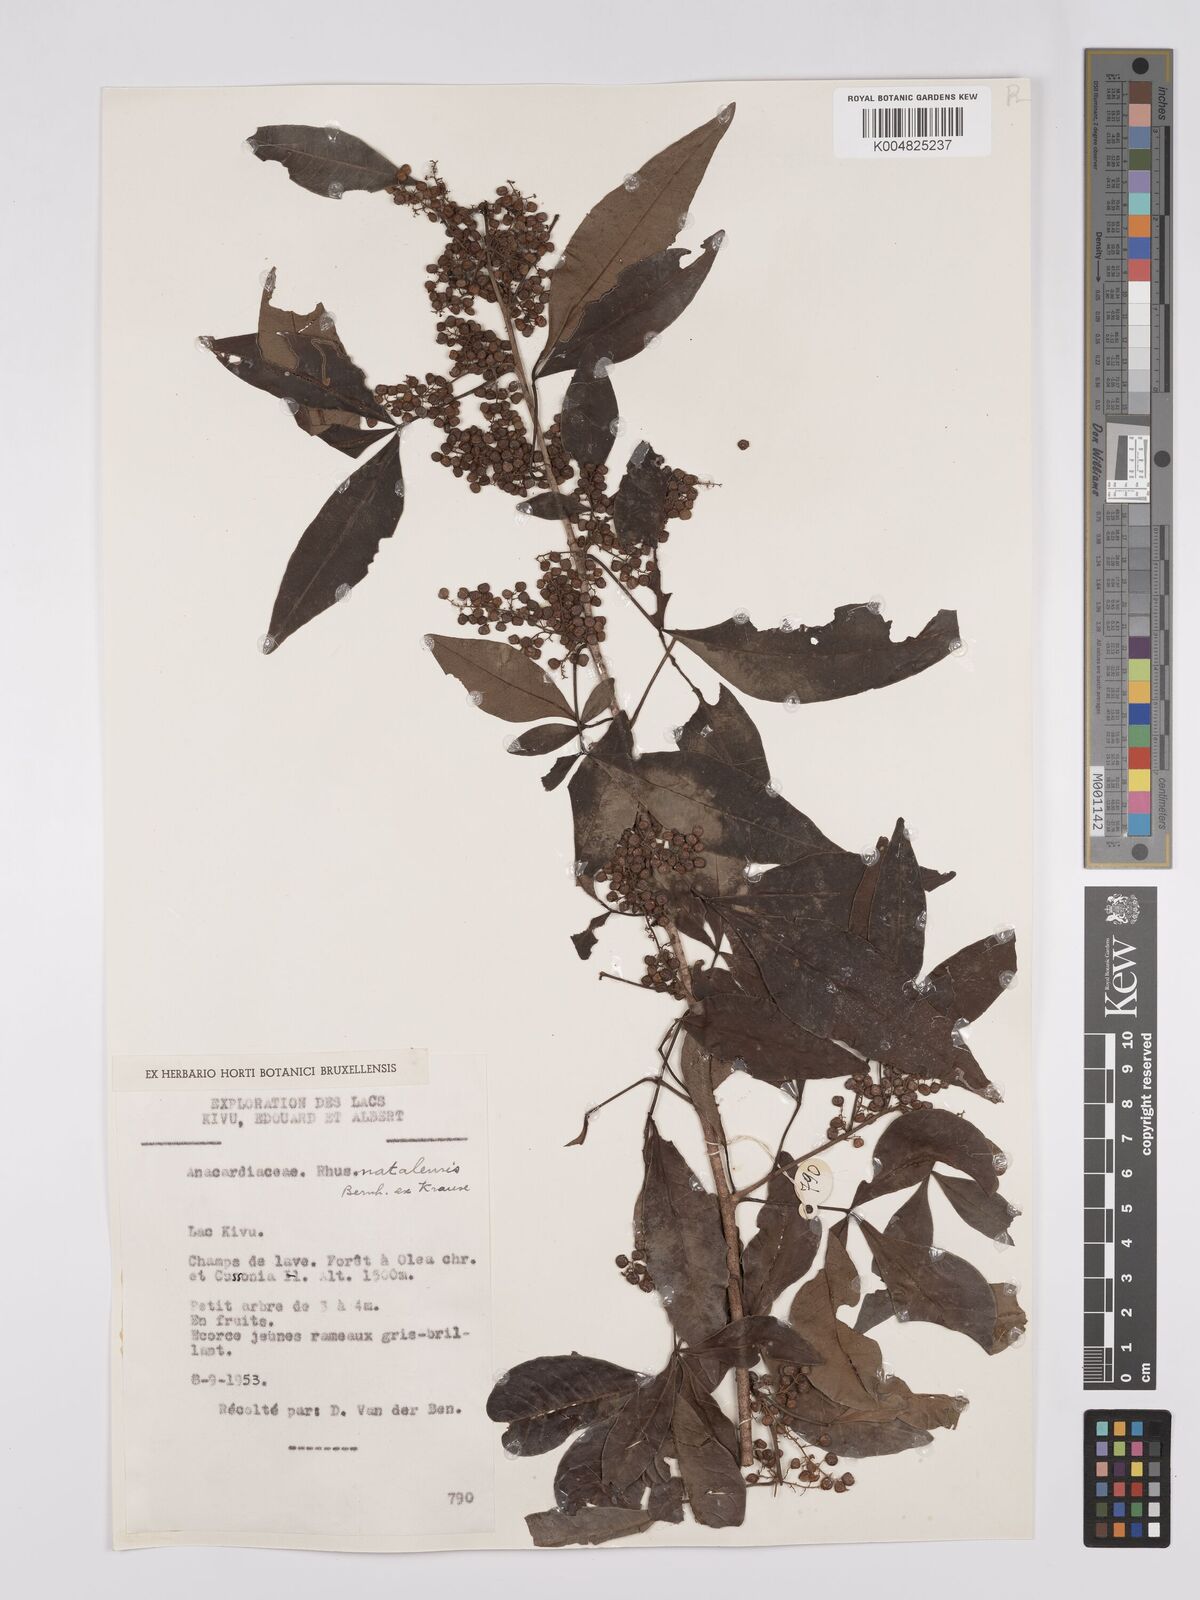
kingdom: Plantae
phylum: Tracheophyta
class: Magnoliopsida
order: Sapindales
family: Anacardiaceae
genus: Searsia
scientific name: Searsia natalensis
